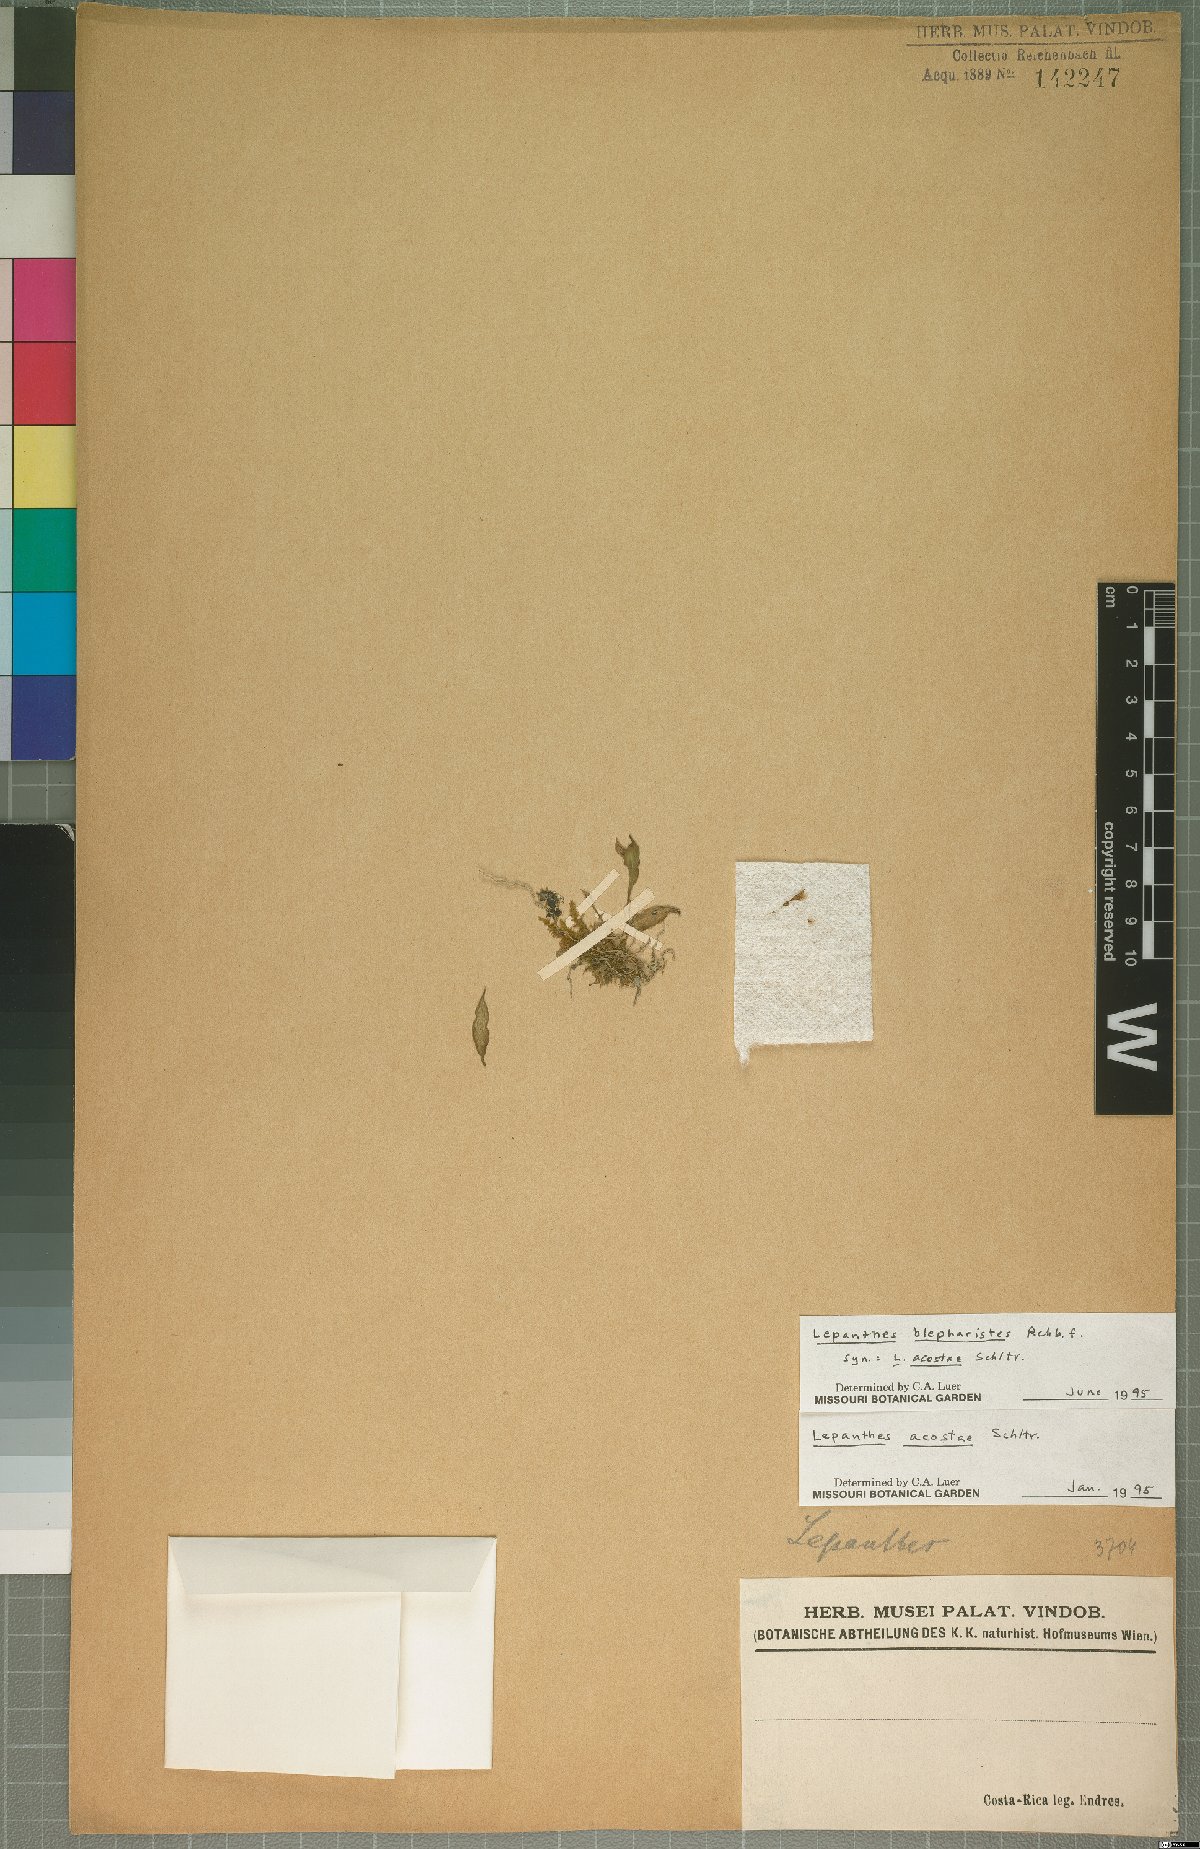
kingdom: Plantae
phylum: Tracheophyta
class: Liliopsida
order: Asparagales
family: Orchidaceae
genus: Lepanthes
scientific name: Lepanthes blepharistes
